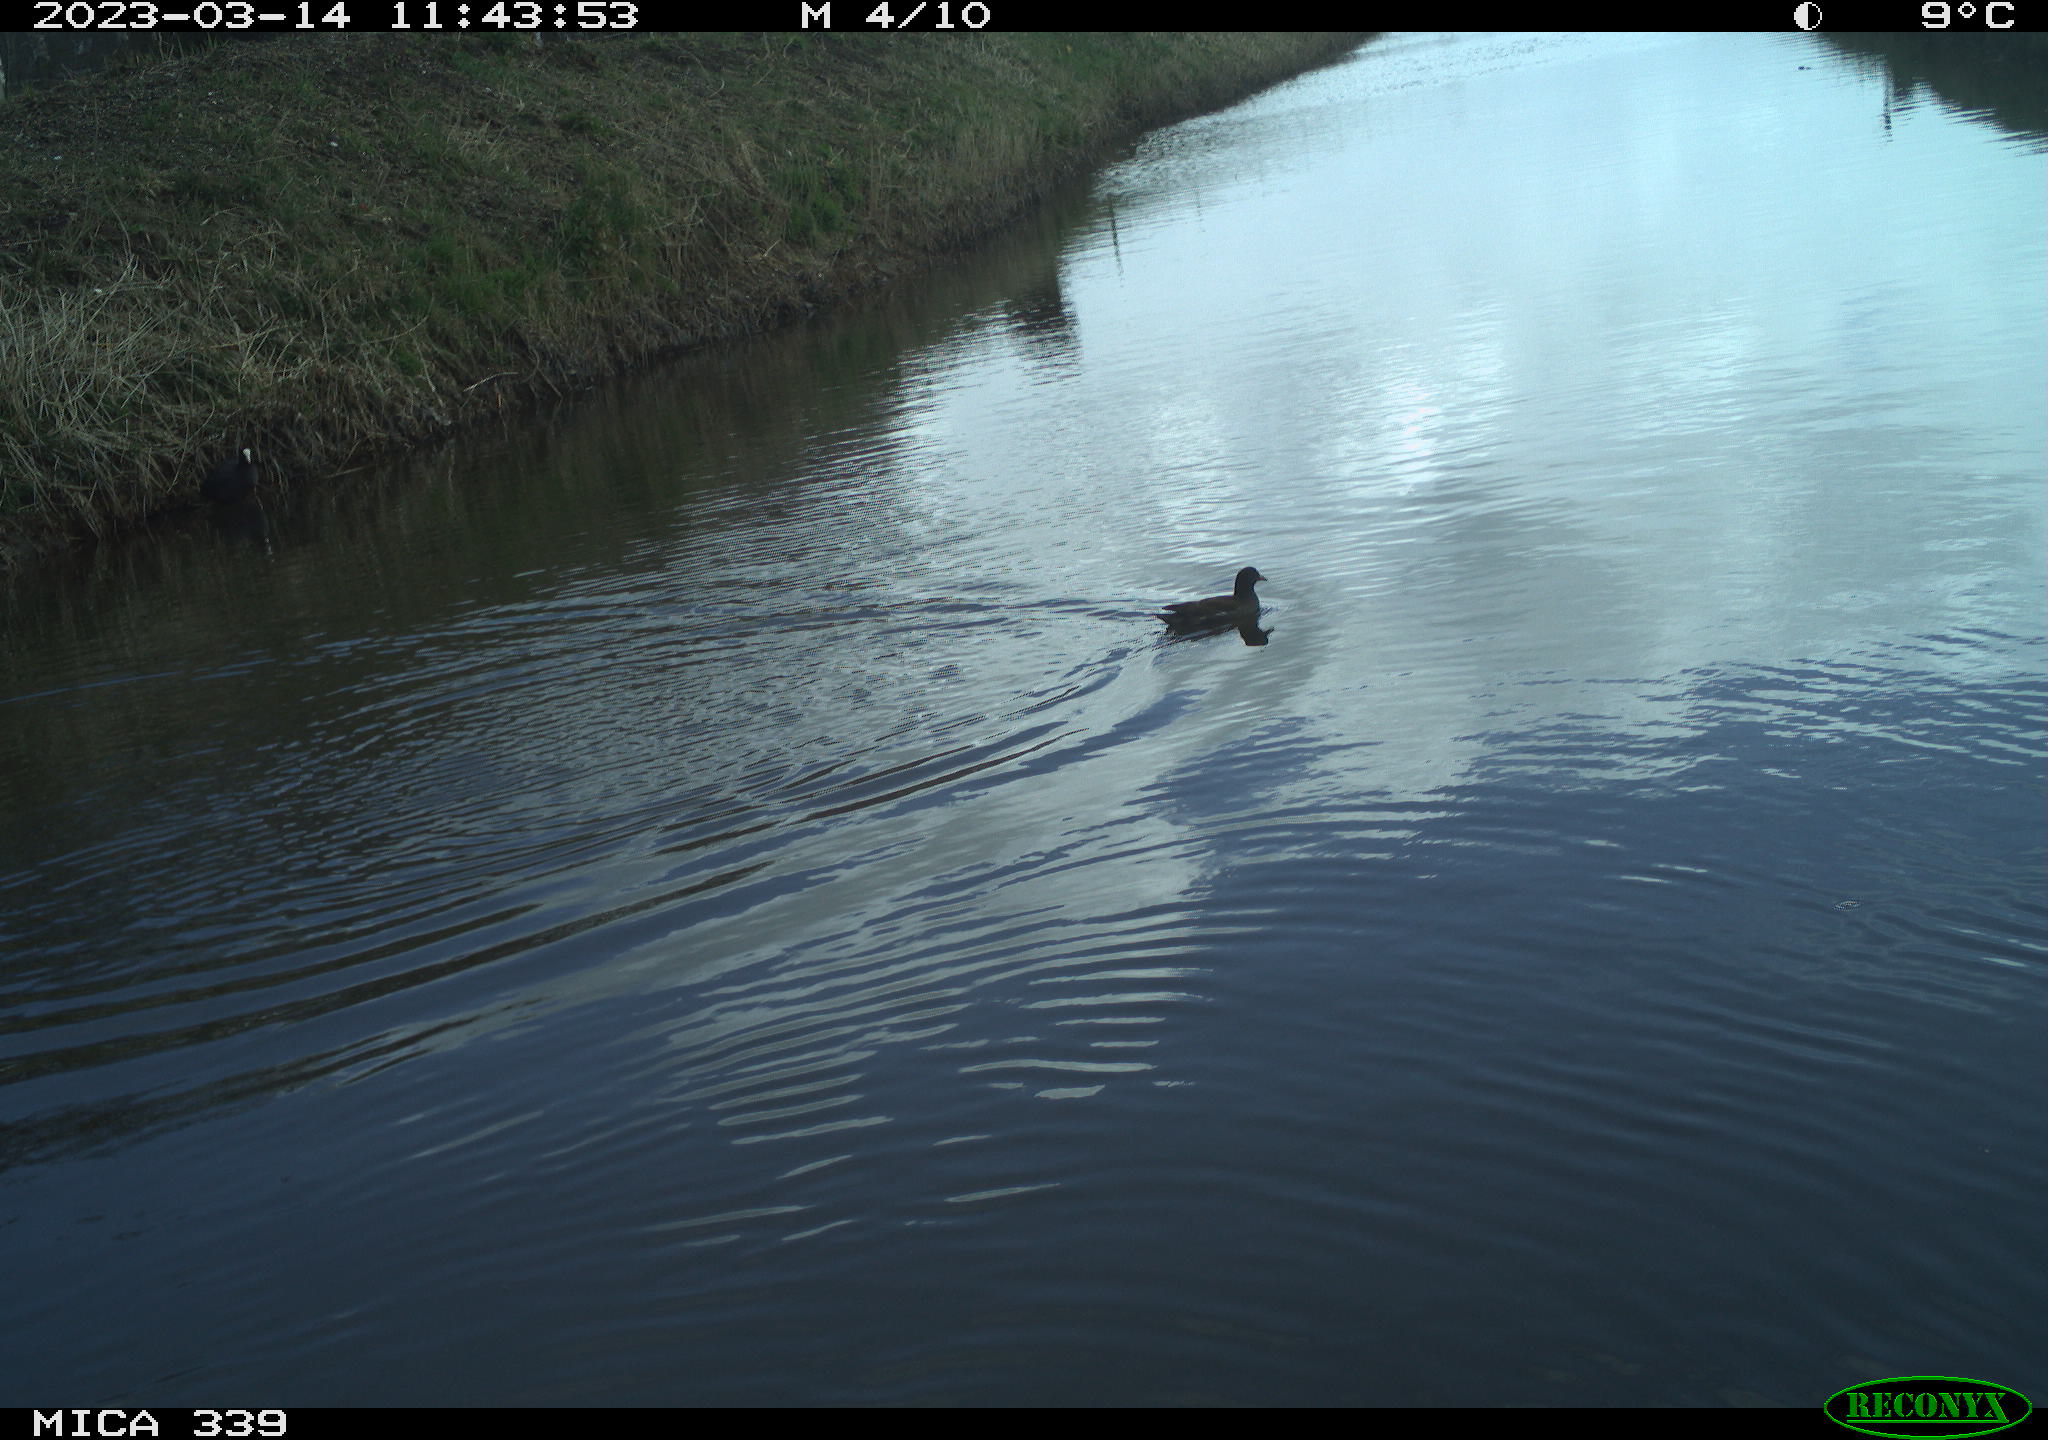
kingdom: Animalia
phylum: Chordata
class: Aves
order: Gruiformes
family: Rallidae
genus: Gallinula
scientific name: Gallinula chloropus
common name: Common moorhen
